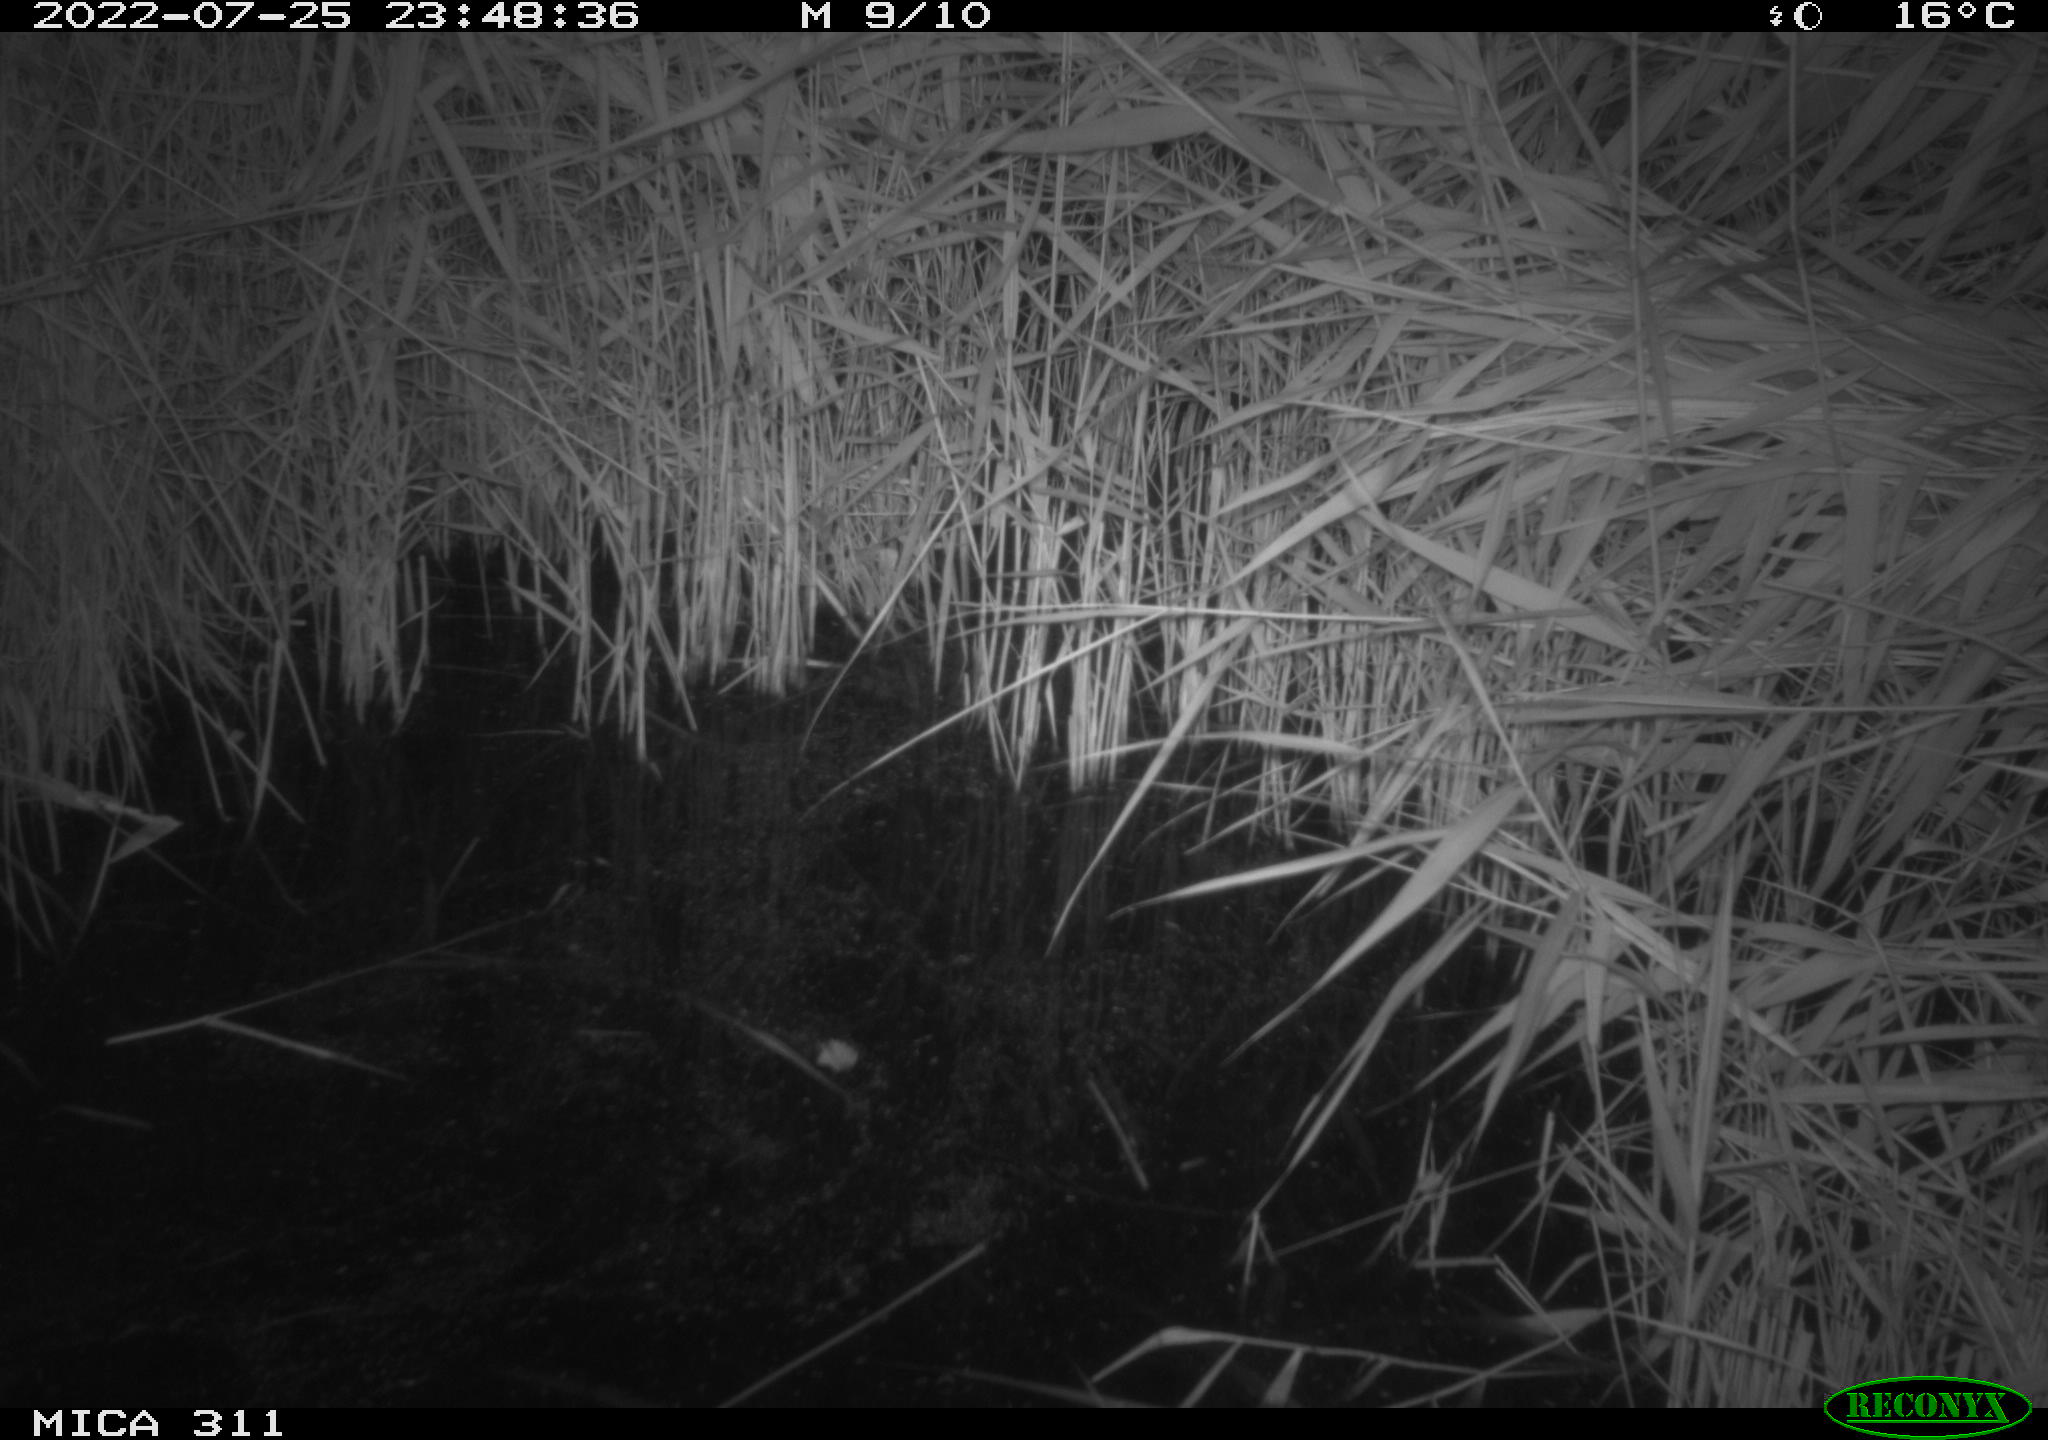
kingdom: Animalia
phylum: Chordata
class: Mammalia
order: Rodentia
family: Muridae
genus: Rattus
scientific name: Rattus norvegicus
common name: Brown rat
